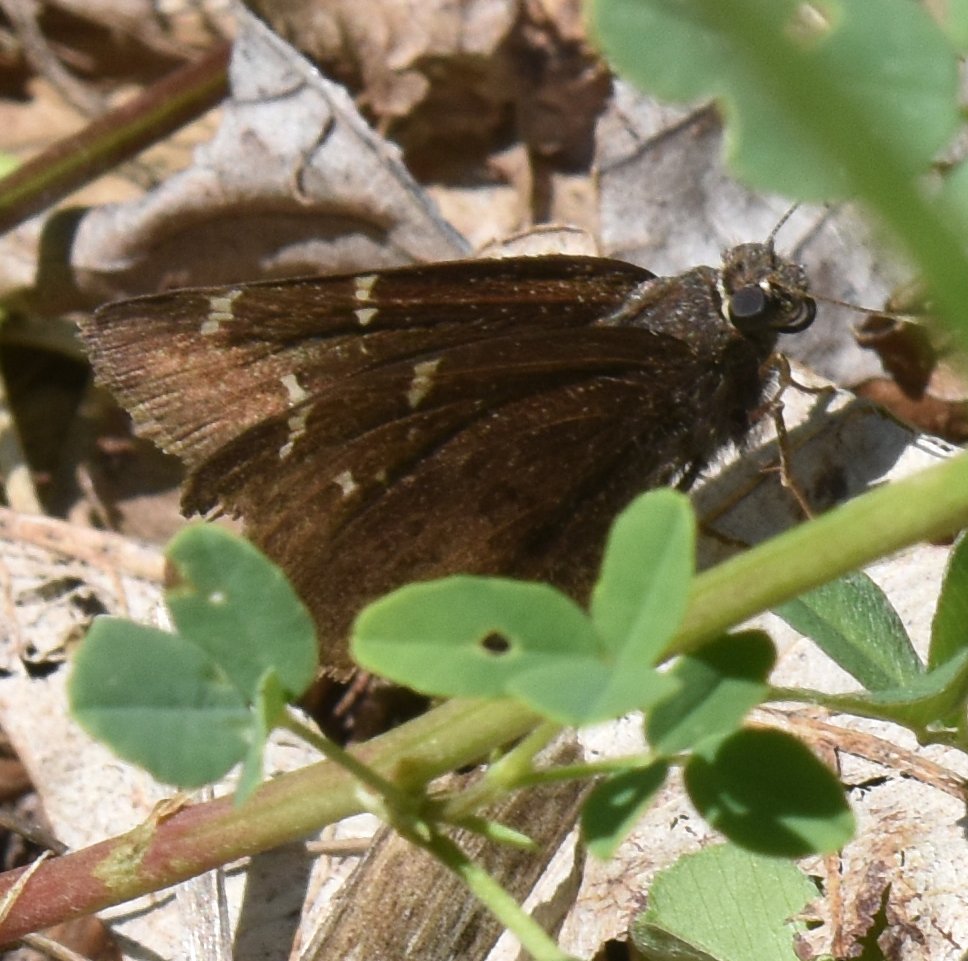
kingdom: Animalia
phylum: Arthropoda
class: Insecta
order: Lepidoptera
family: Hesperiidae
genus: Autochton
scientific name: Autochton
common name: Northern Cloudywing
